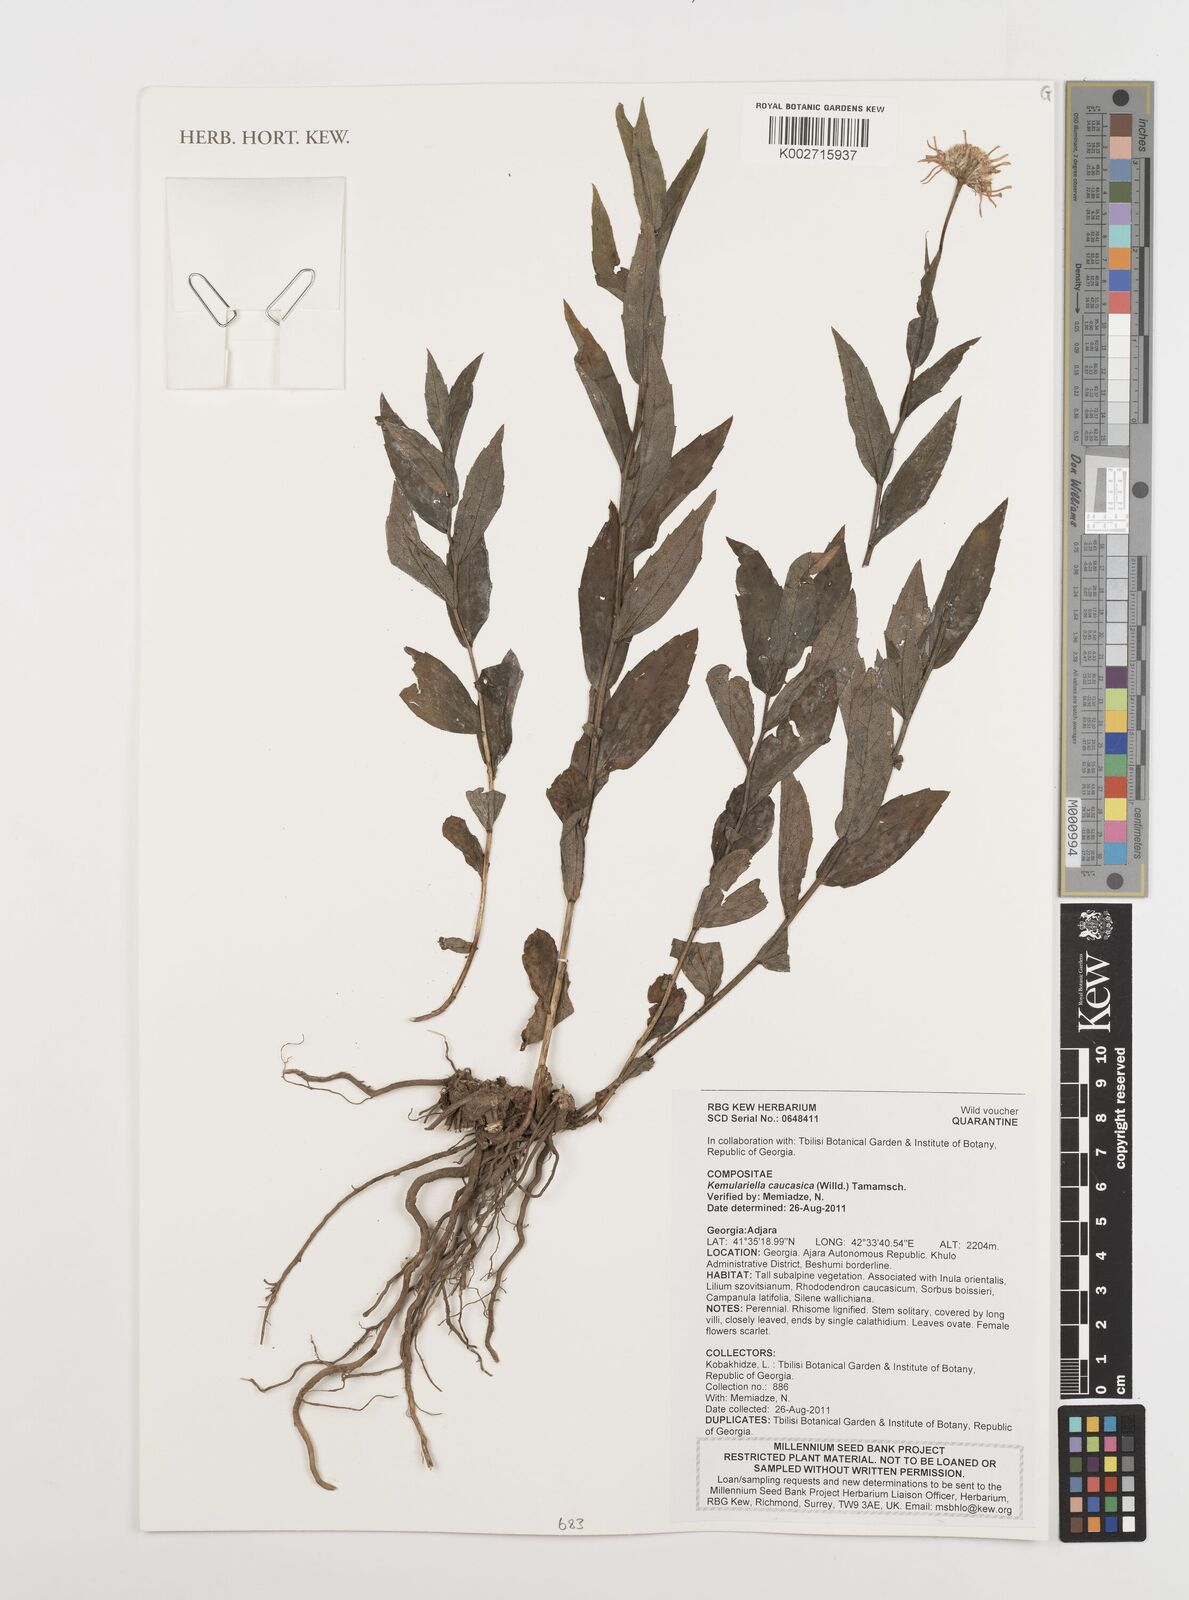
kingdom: Plantae
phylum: Tracheophyta
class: Magnoliopsida
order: Asterales
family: Asteraceae
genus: Kemulariella
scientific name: Kemulariella caucasica
